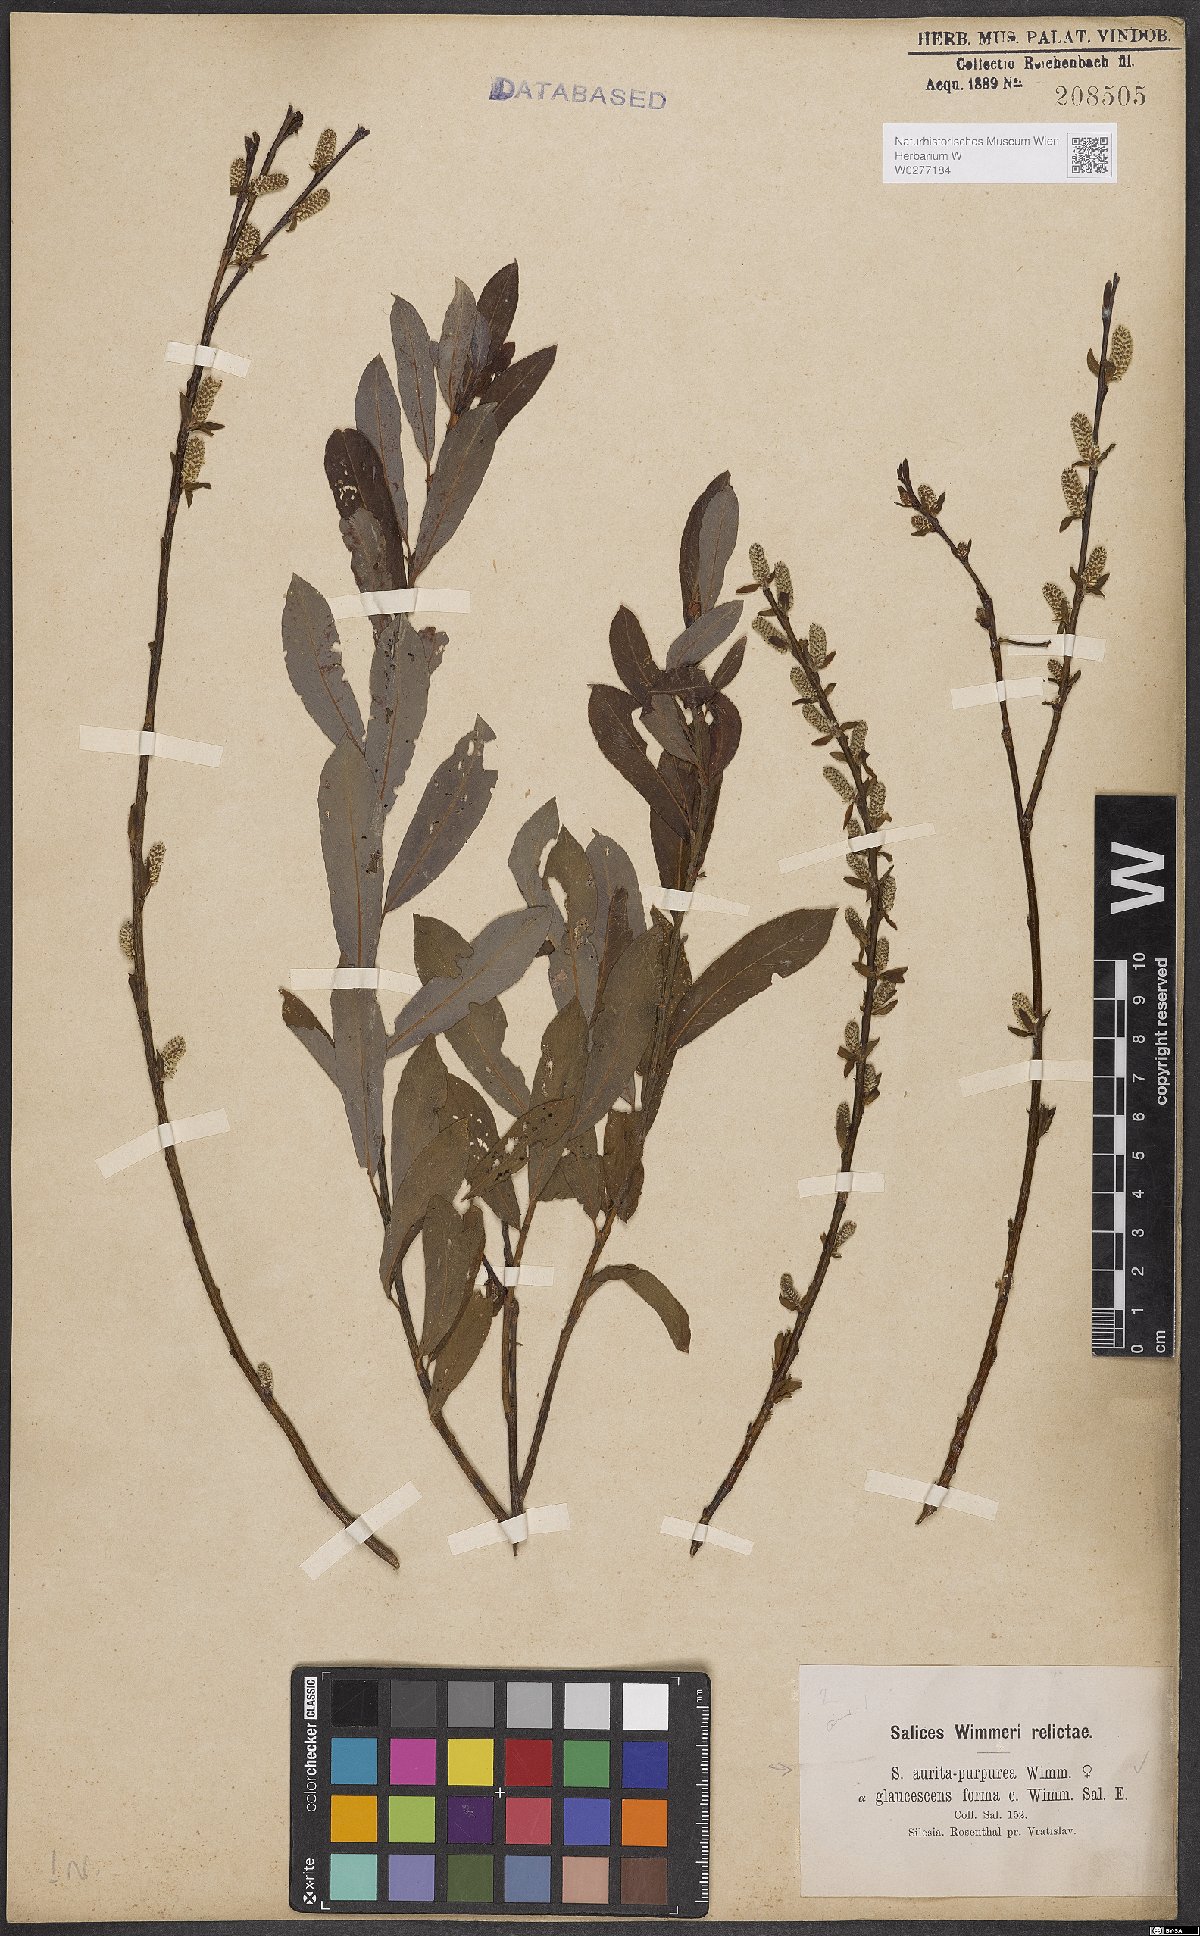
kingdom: Plantae
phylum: Tracheophyta
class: Magnoliopsida
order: Malpighiales
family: Salicaceae
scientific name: Salicaceae
